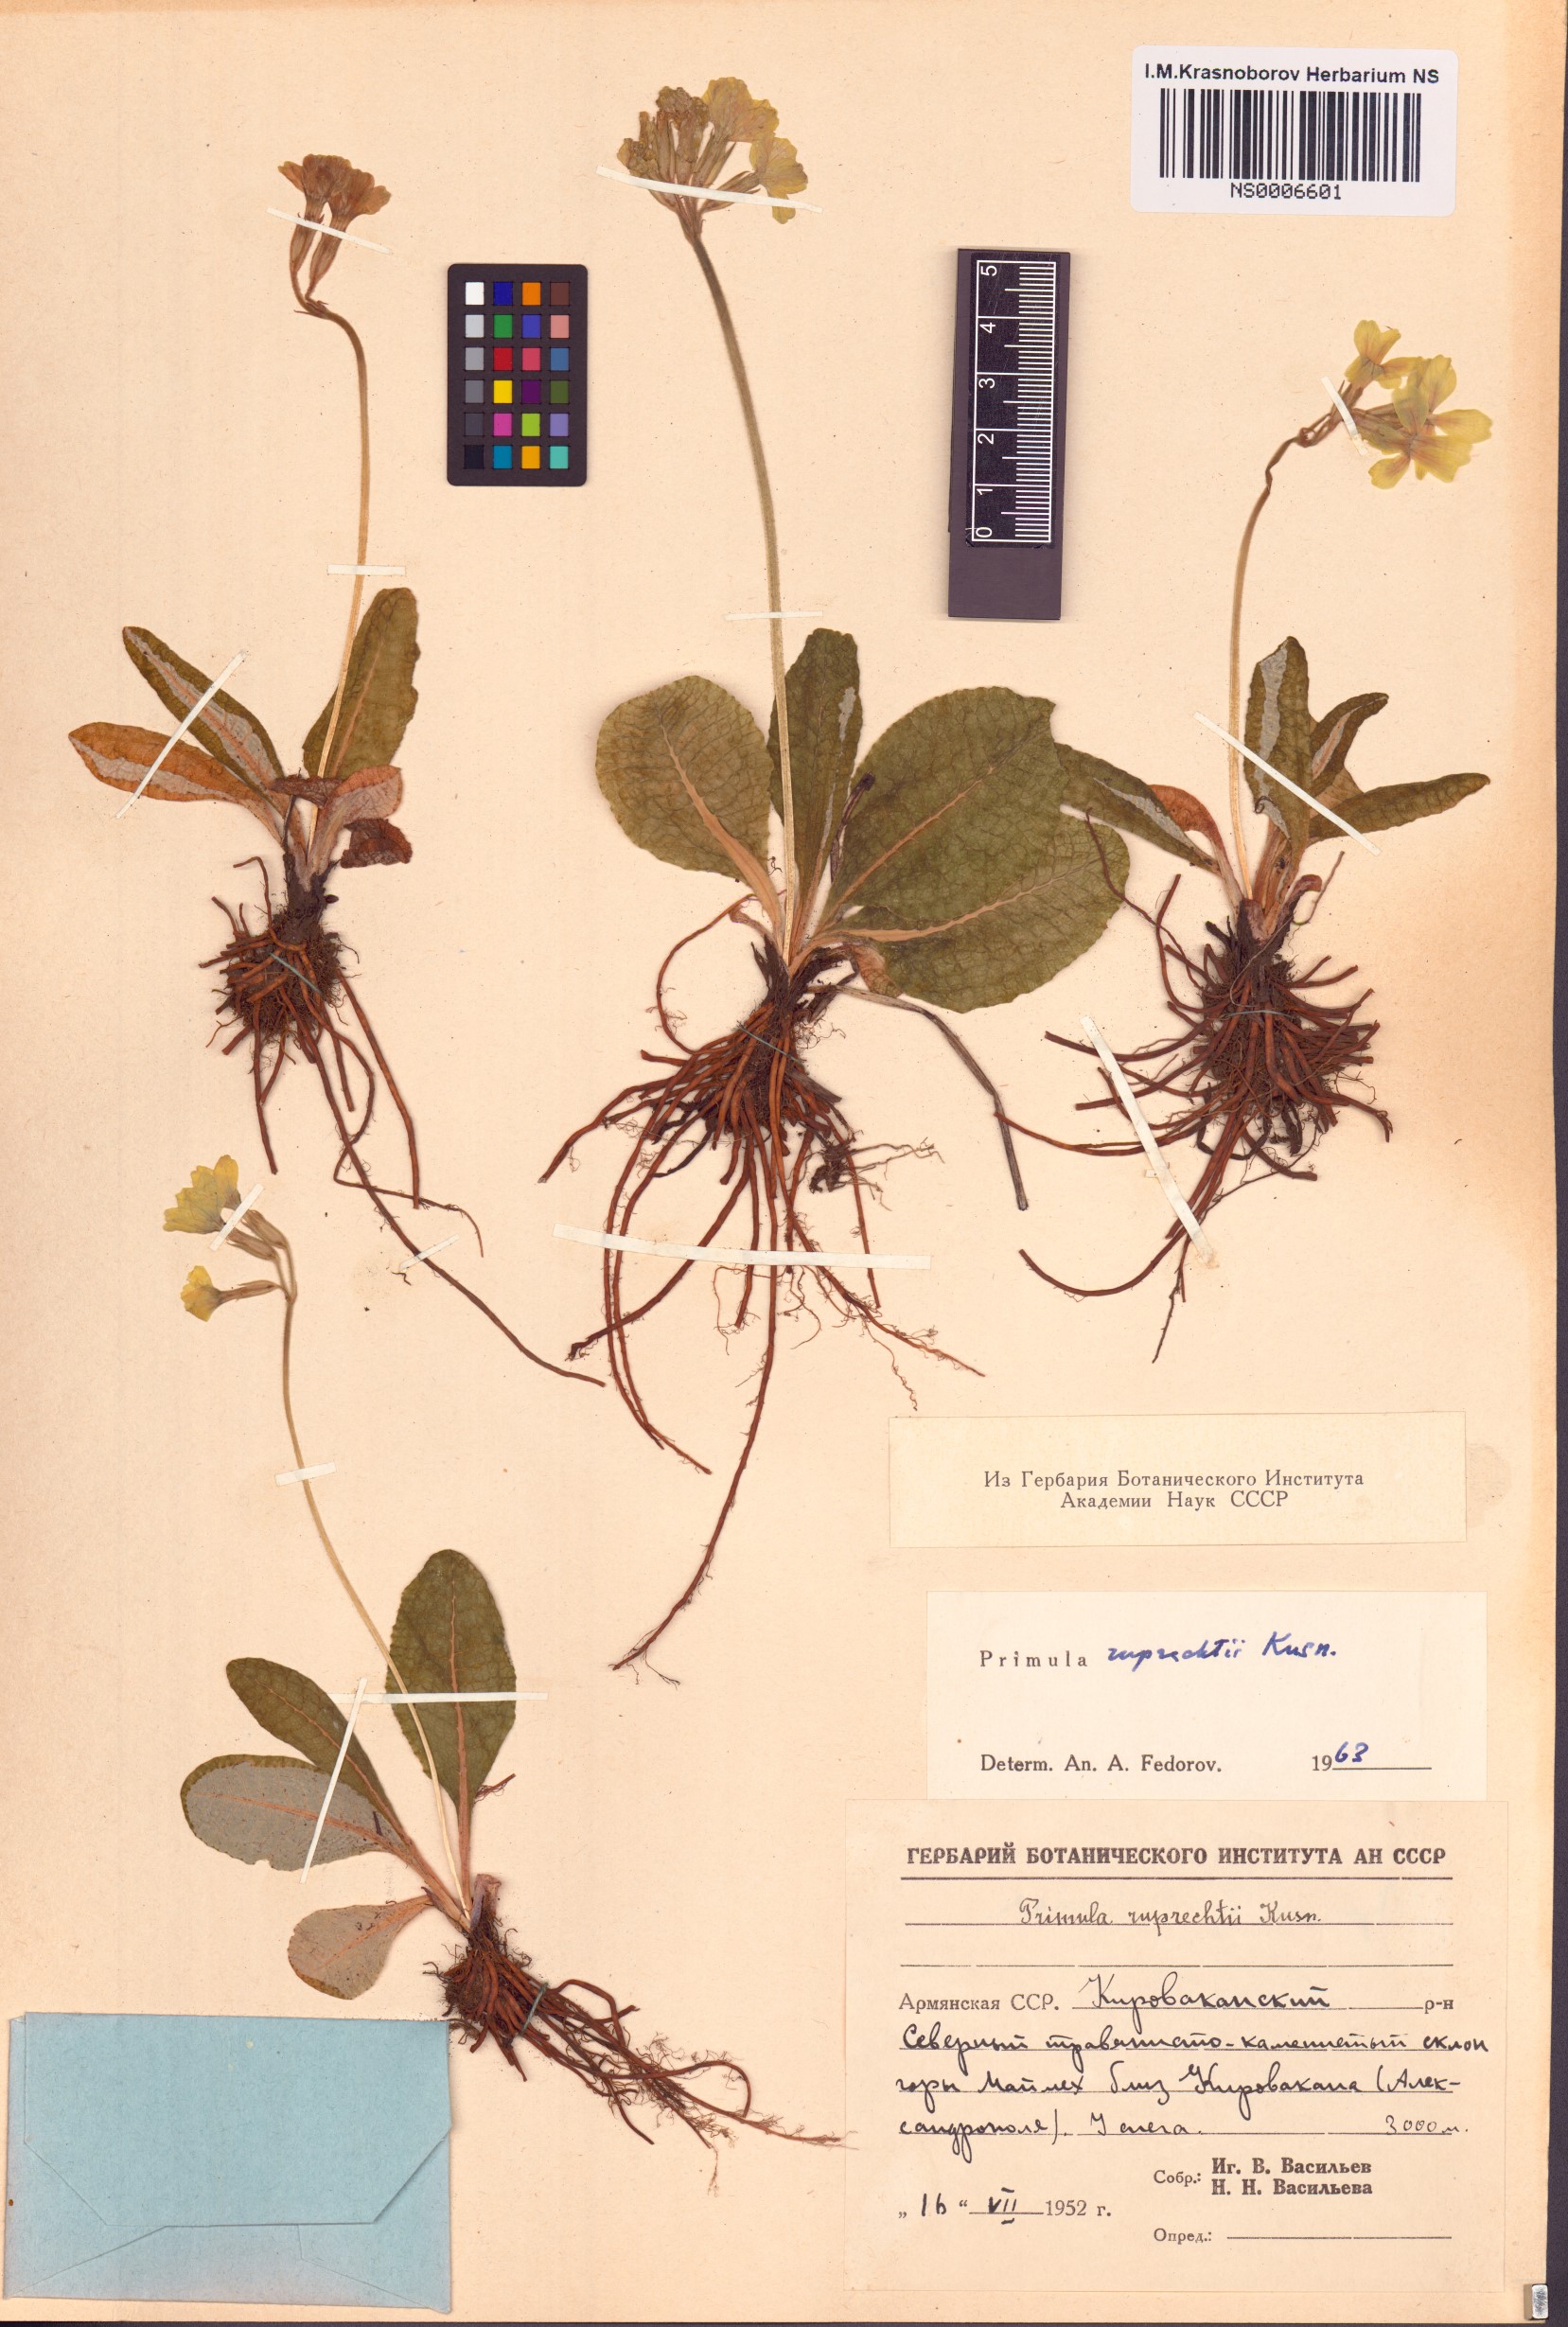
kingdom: Plantae
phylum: Tracheophyta
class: Magnoliopsida
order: Ericales
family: Primulaceae
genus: Primula
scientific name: Primula ruprechtii
